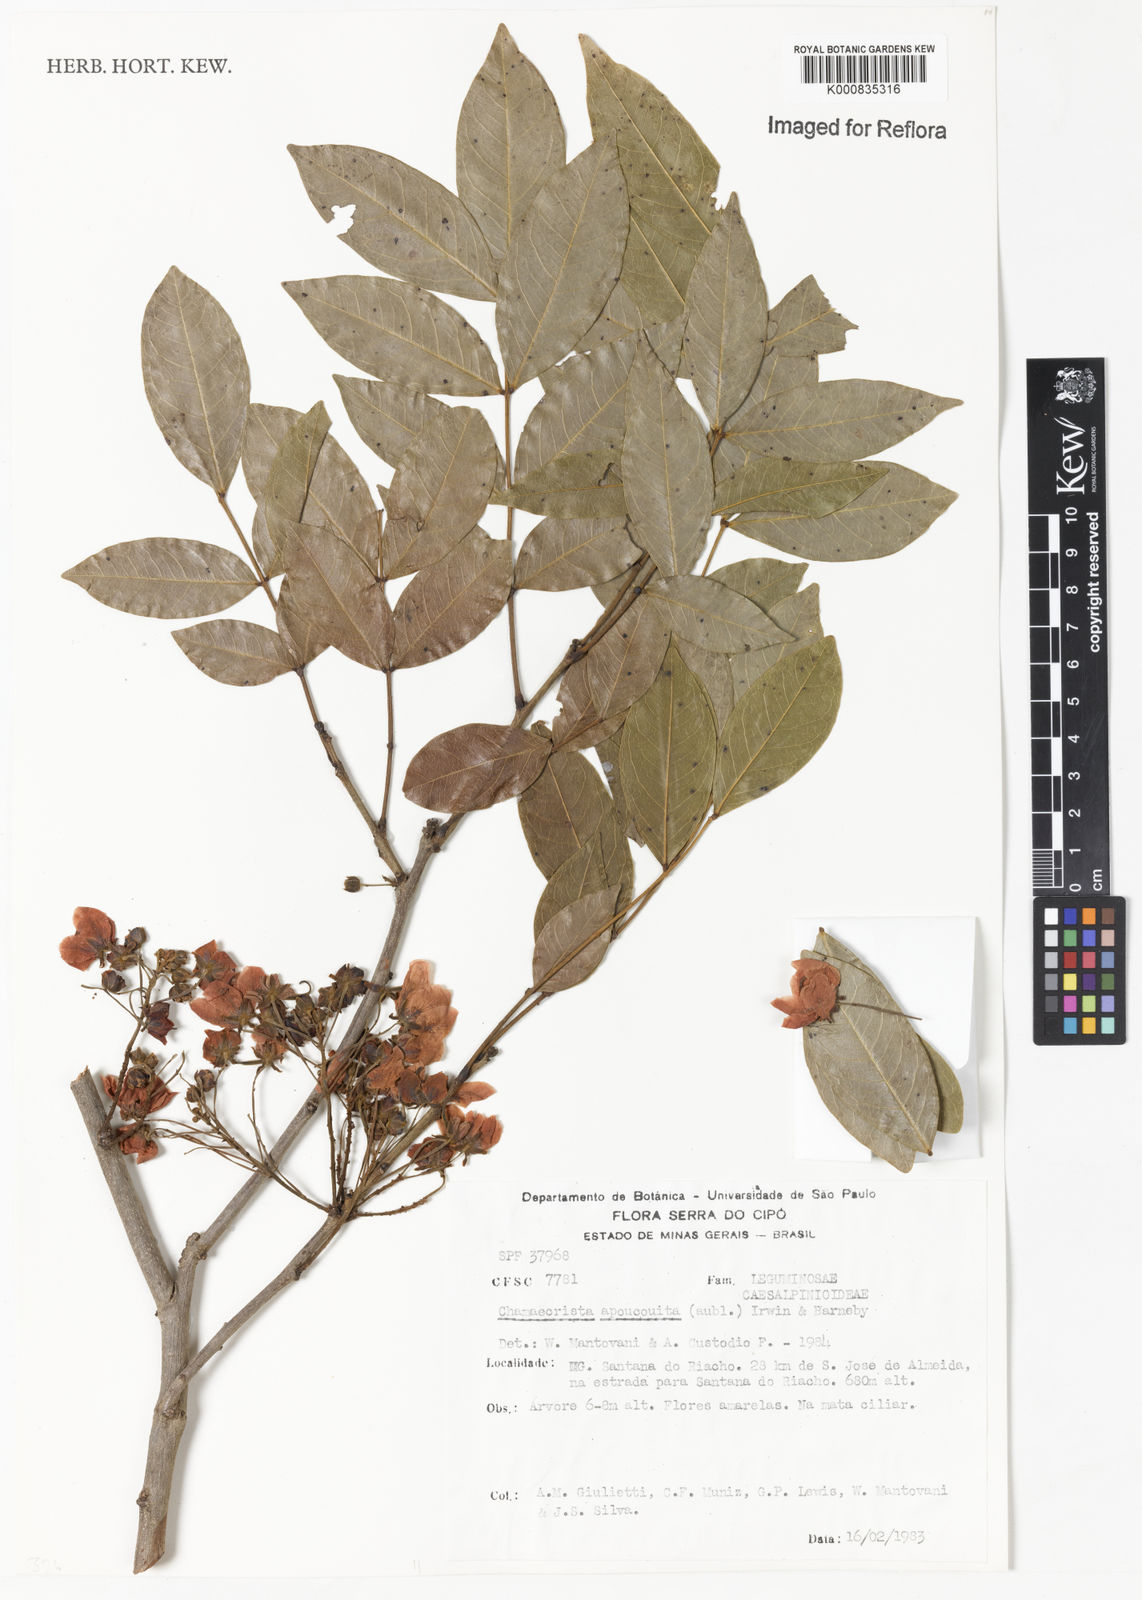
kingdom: Plantae
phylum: Tracheophyta
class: Magnoliopsida
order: Fabales
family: Fabaceae
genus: Chamaecrista
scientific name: Chamaecrista apoucouita
